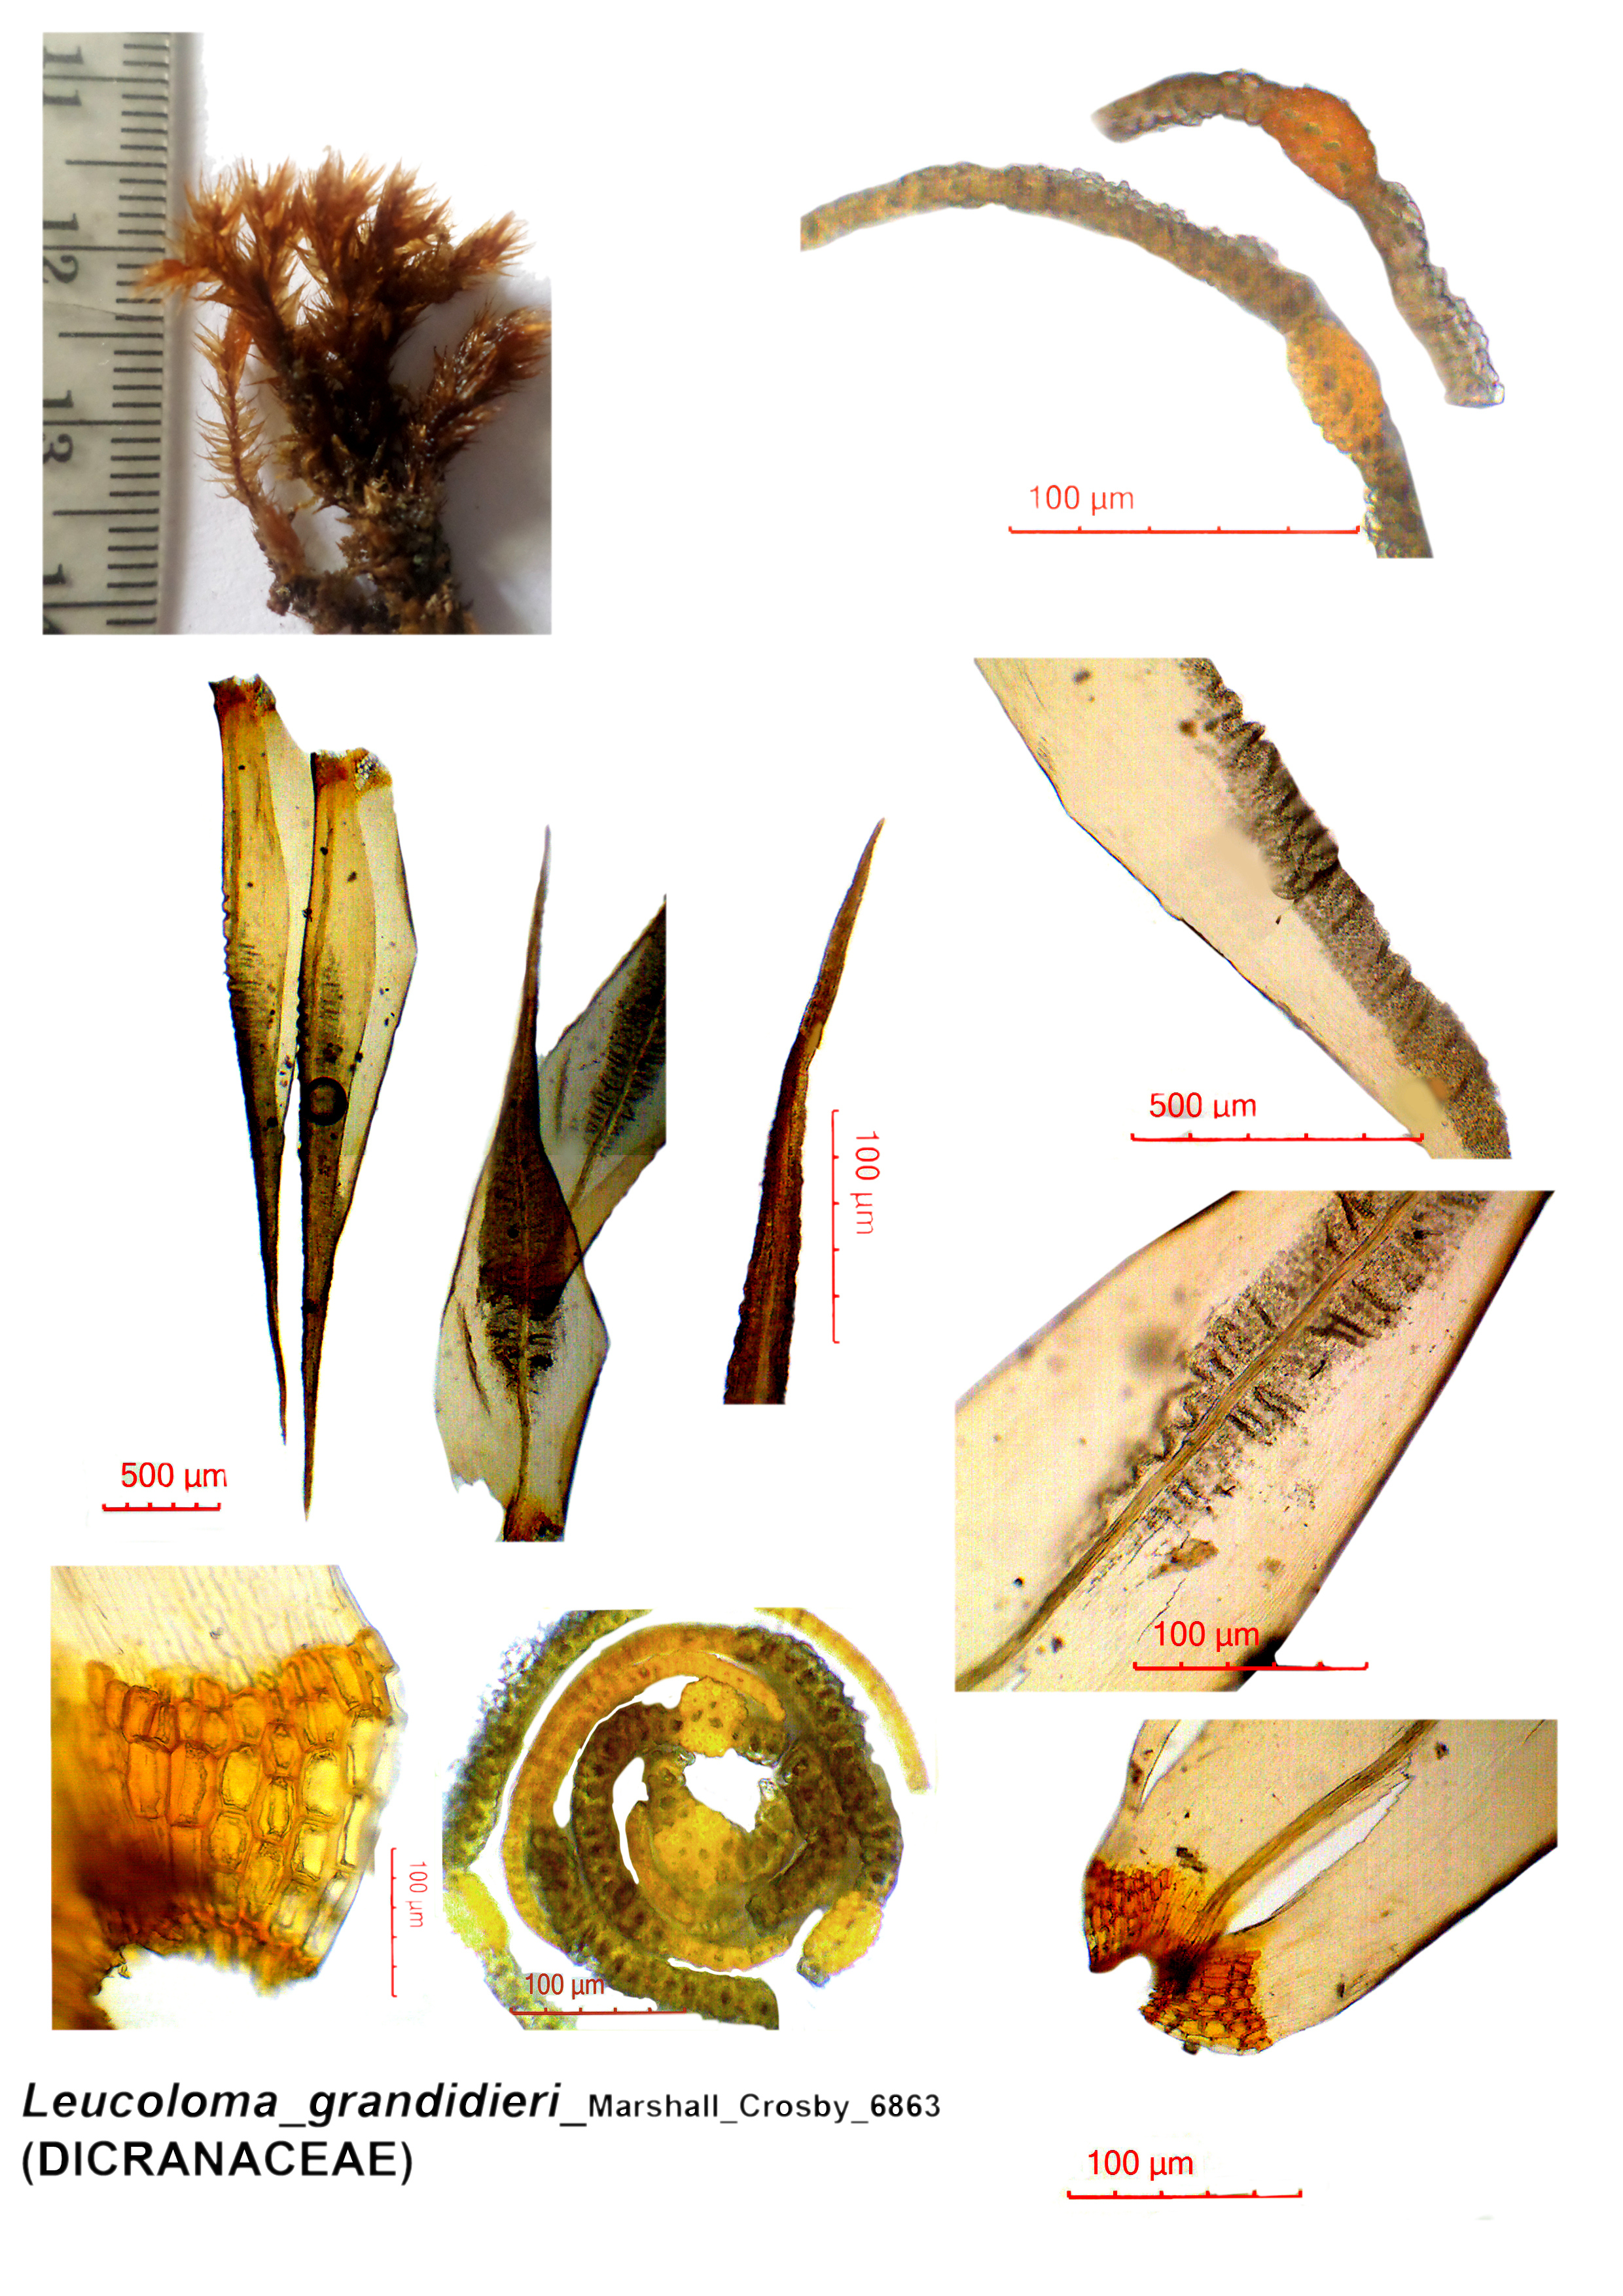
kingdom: Plantae
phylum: Bryophyta
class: Bryopsida
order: Dicranales
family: Dicranaceae
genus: Leucoloma
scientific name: Leucoloma grandidieri
